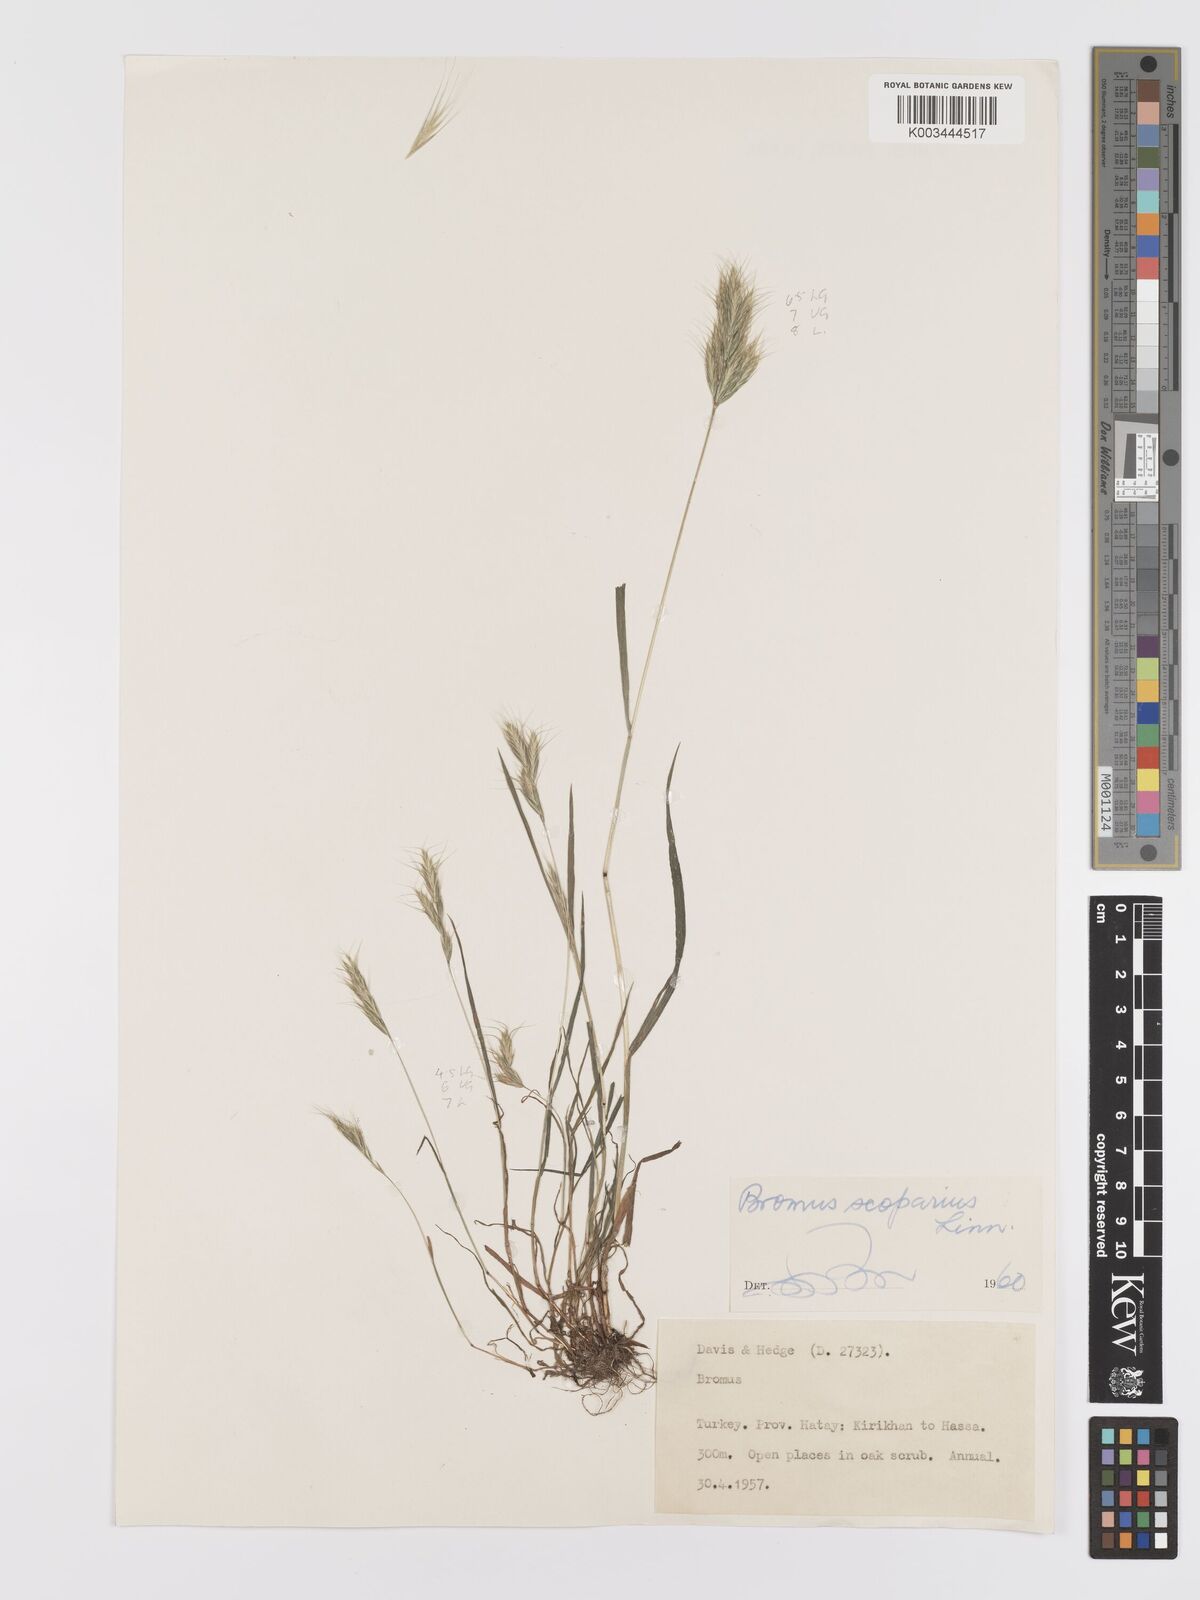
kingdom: Plantae
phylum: Tracheophyta
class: Liliopsida
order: Poales
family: Poaceae
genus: Bromus
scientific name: Bromus scoparius
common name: Broom brome
